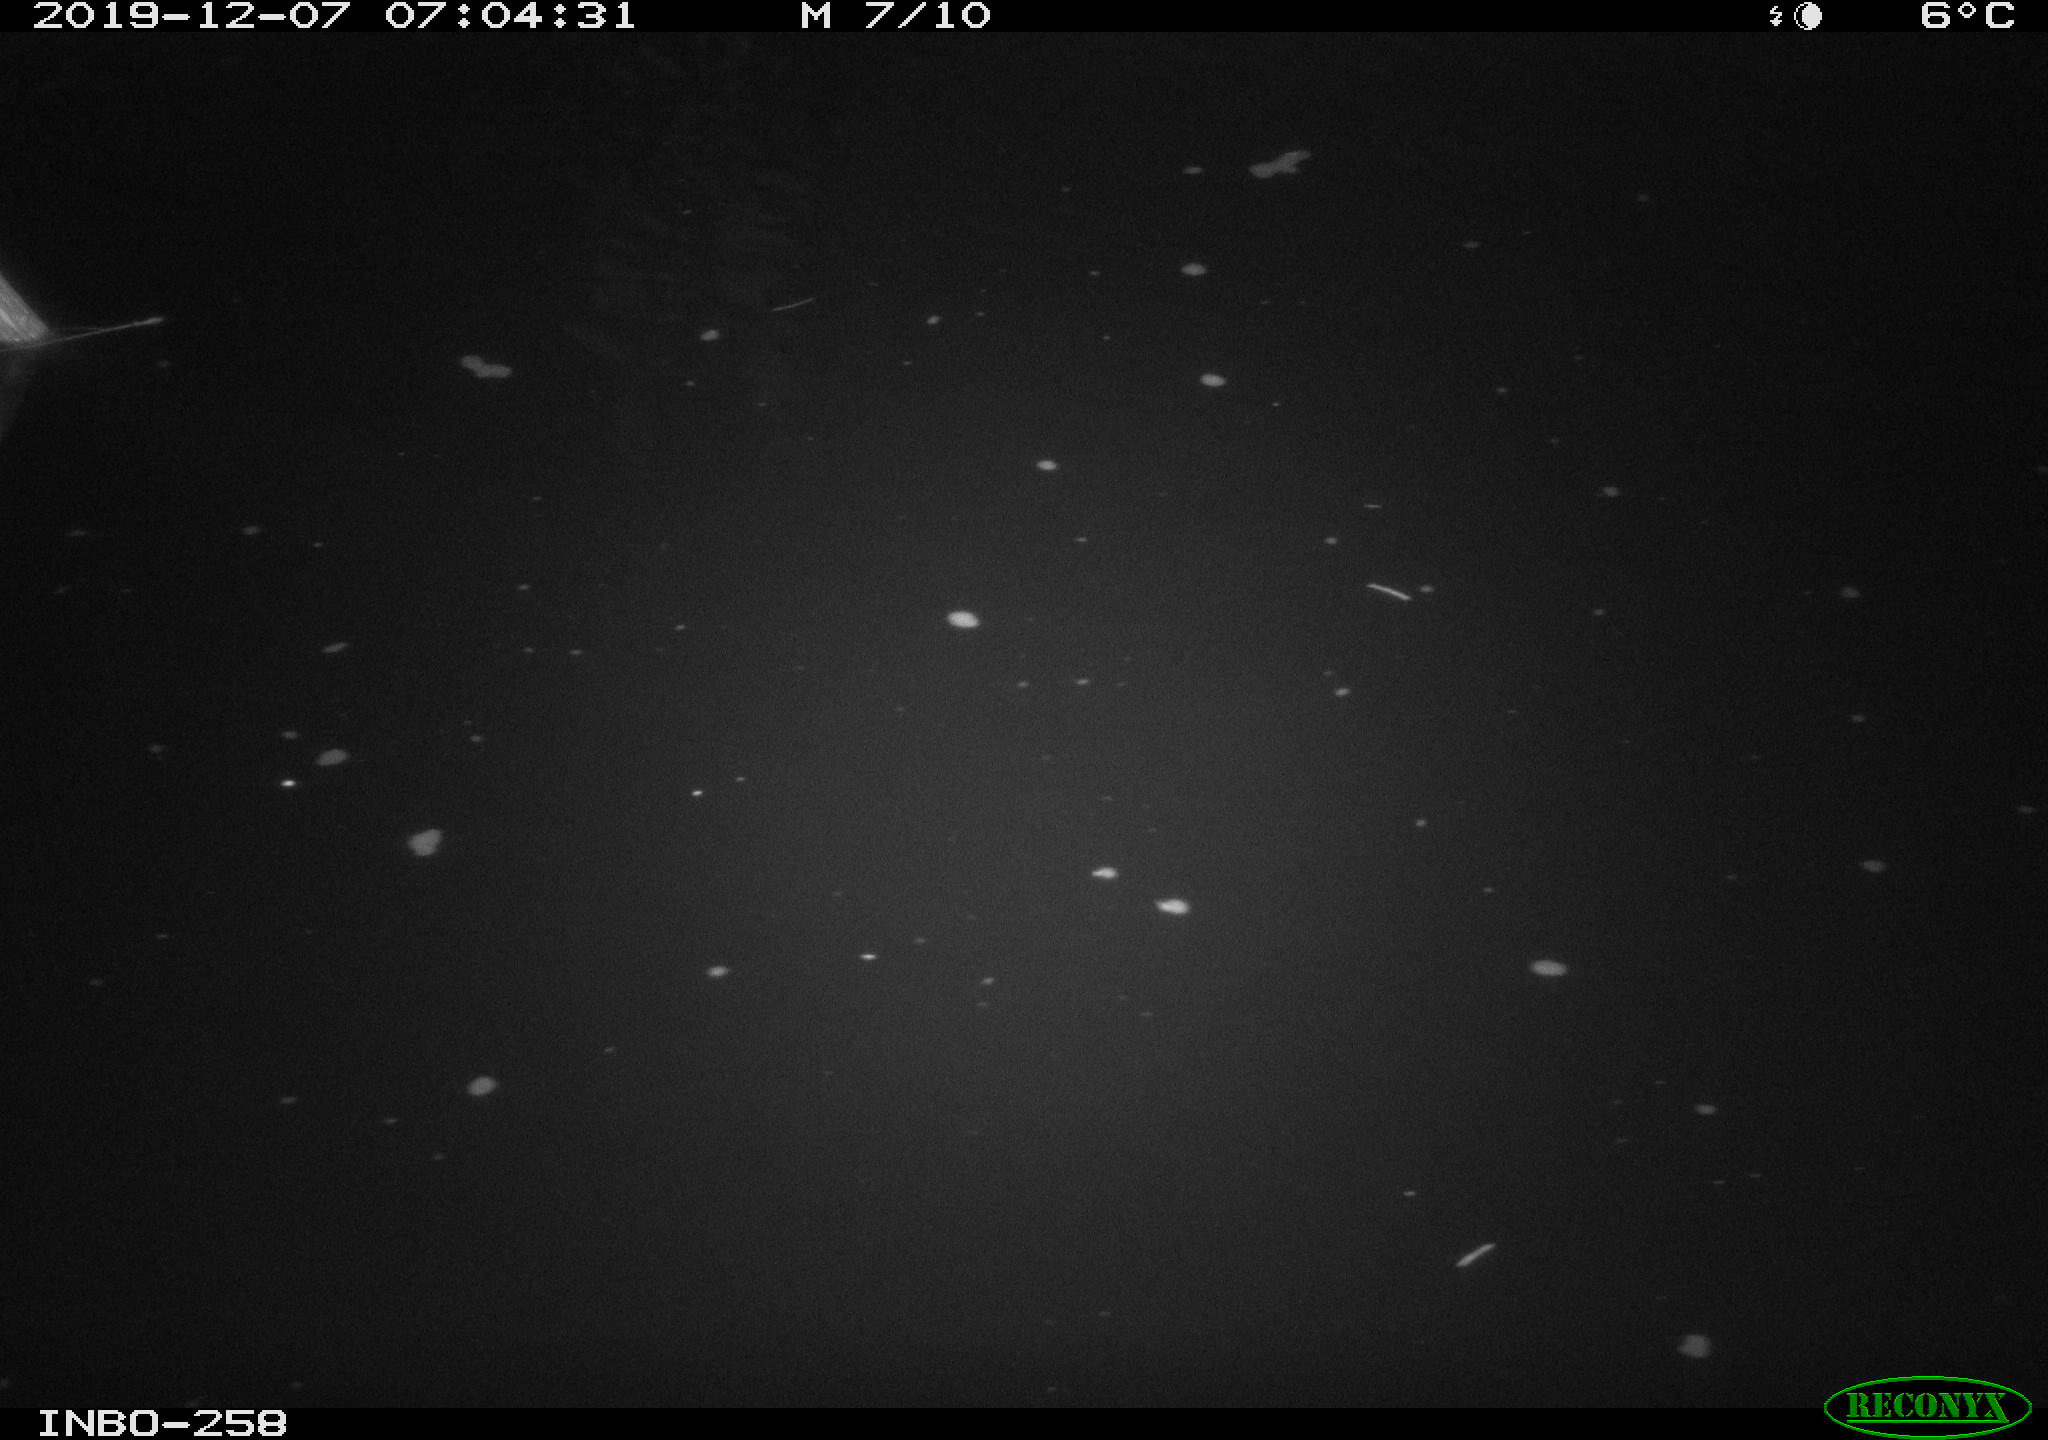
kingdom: Animalia
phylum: Chordata
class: Aves
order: Anseriformes
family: Anatidae
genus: Anas
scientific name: Anas platyrhynchos
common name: Mallard
